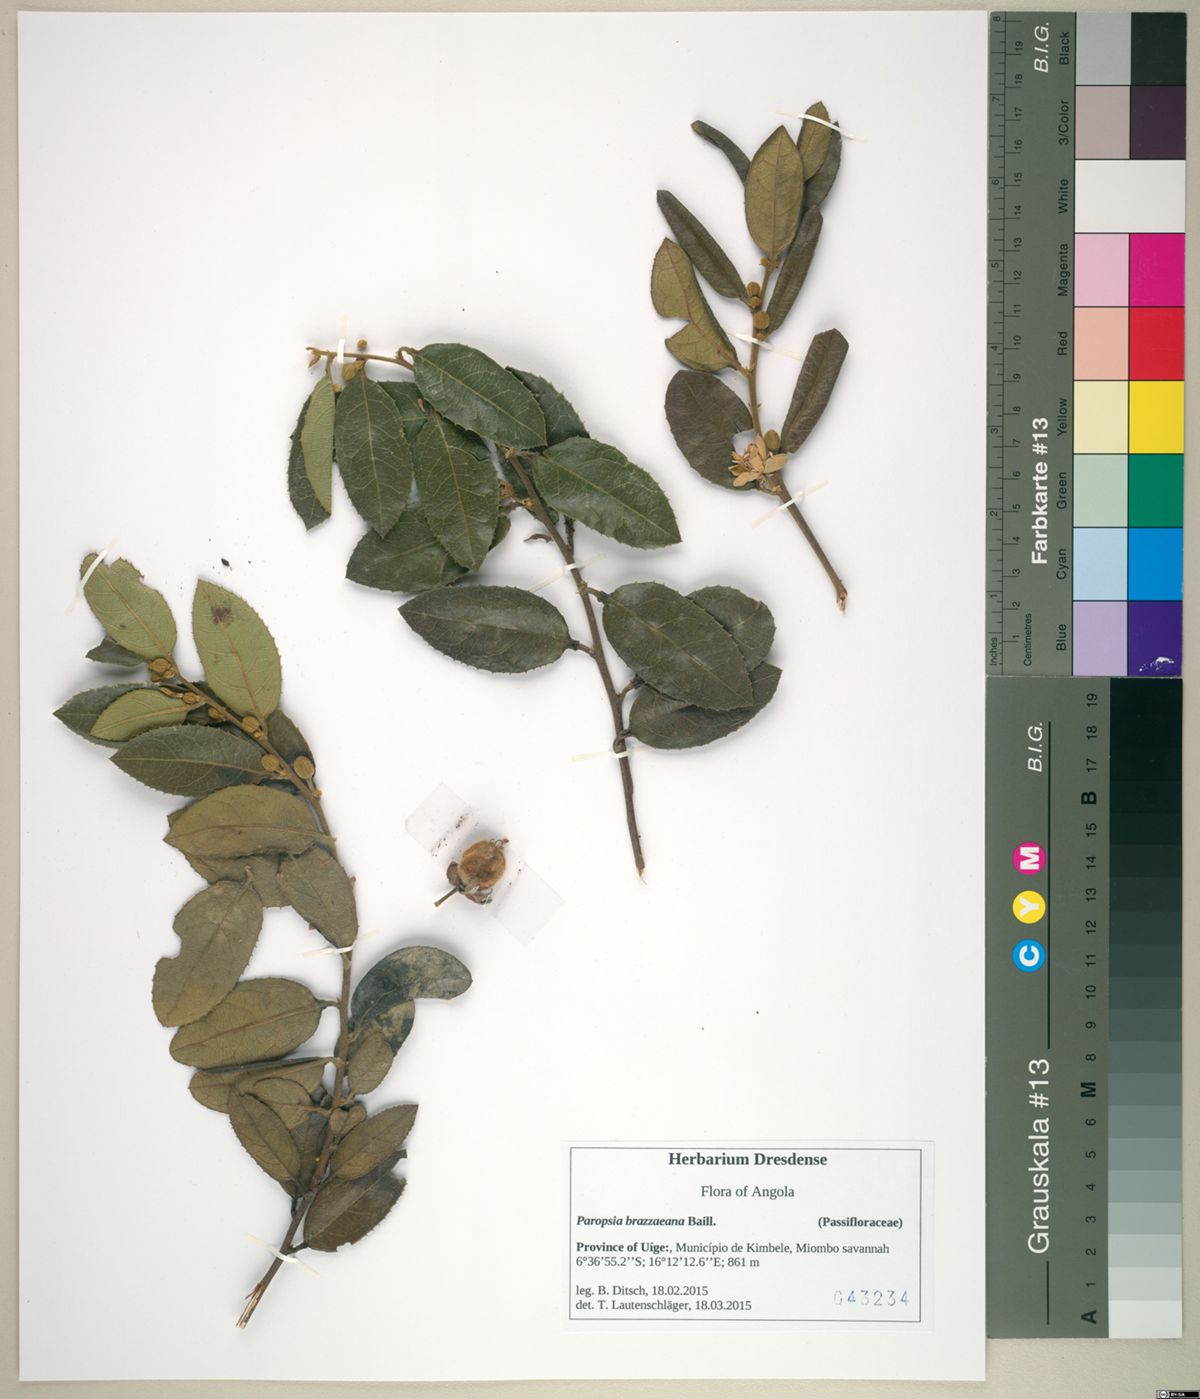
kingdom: Plantae
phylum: Tracheophyta
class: Magnoliopsida
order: Malpighiales
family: Passifloraceae
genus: Paropsia
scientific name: Paropsia brazzaeana
